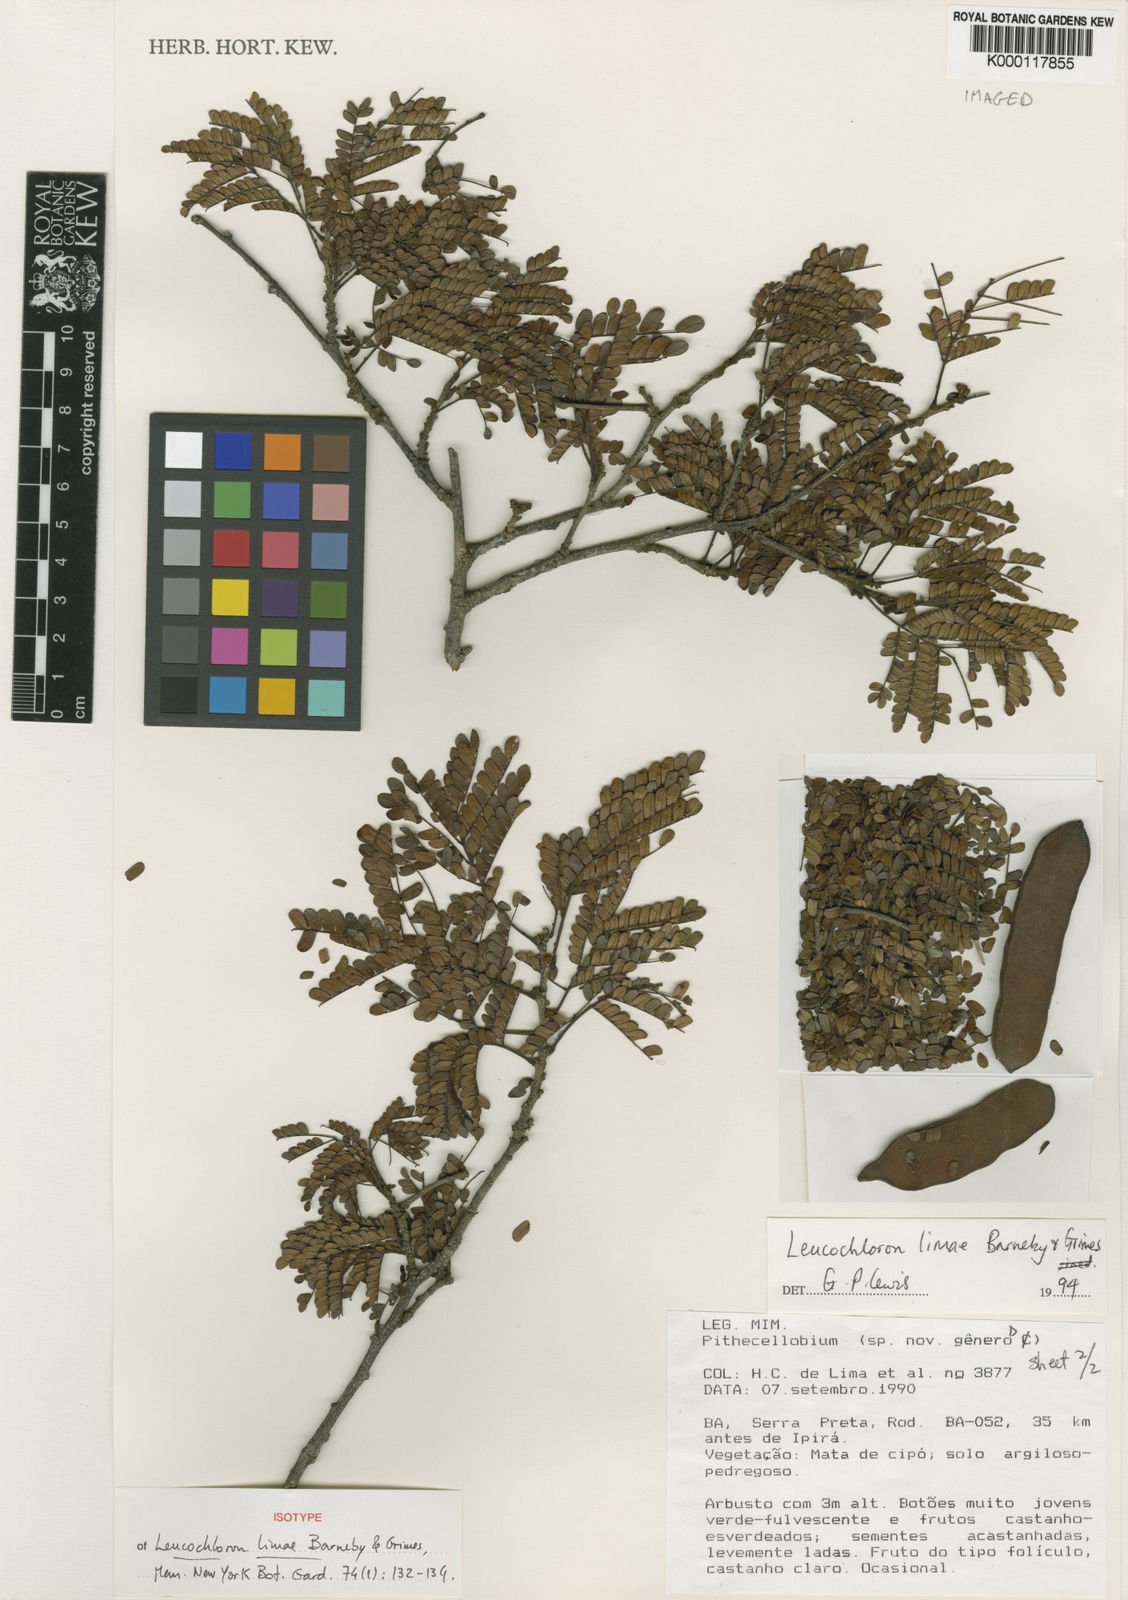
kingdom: Plantae
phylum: Tracheophyta
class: Magnoliopsida
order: Fabales
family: Fabaceae
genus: Leucochloron
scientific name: Leucochloron limae
